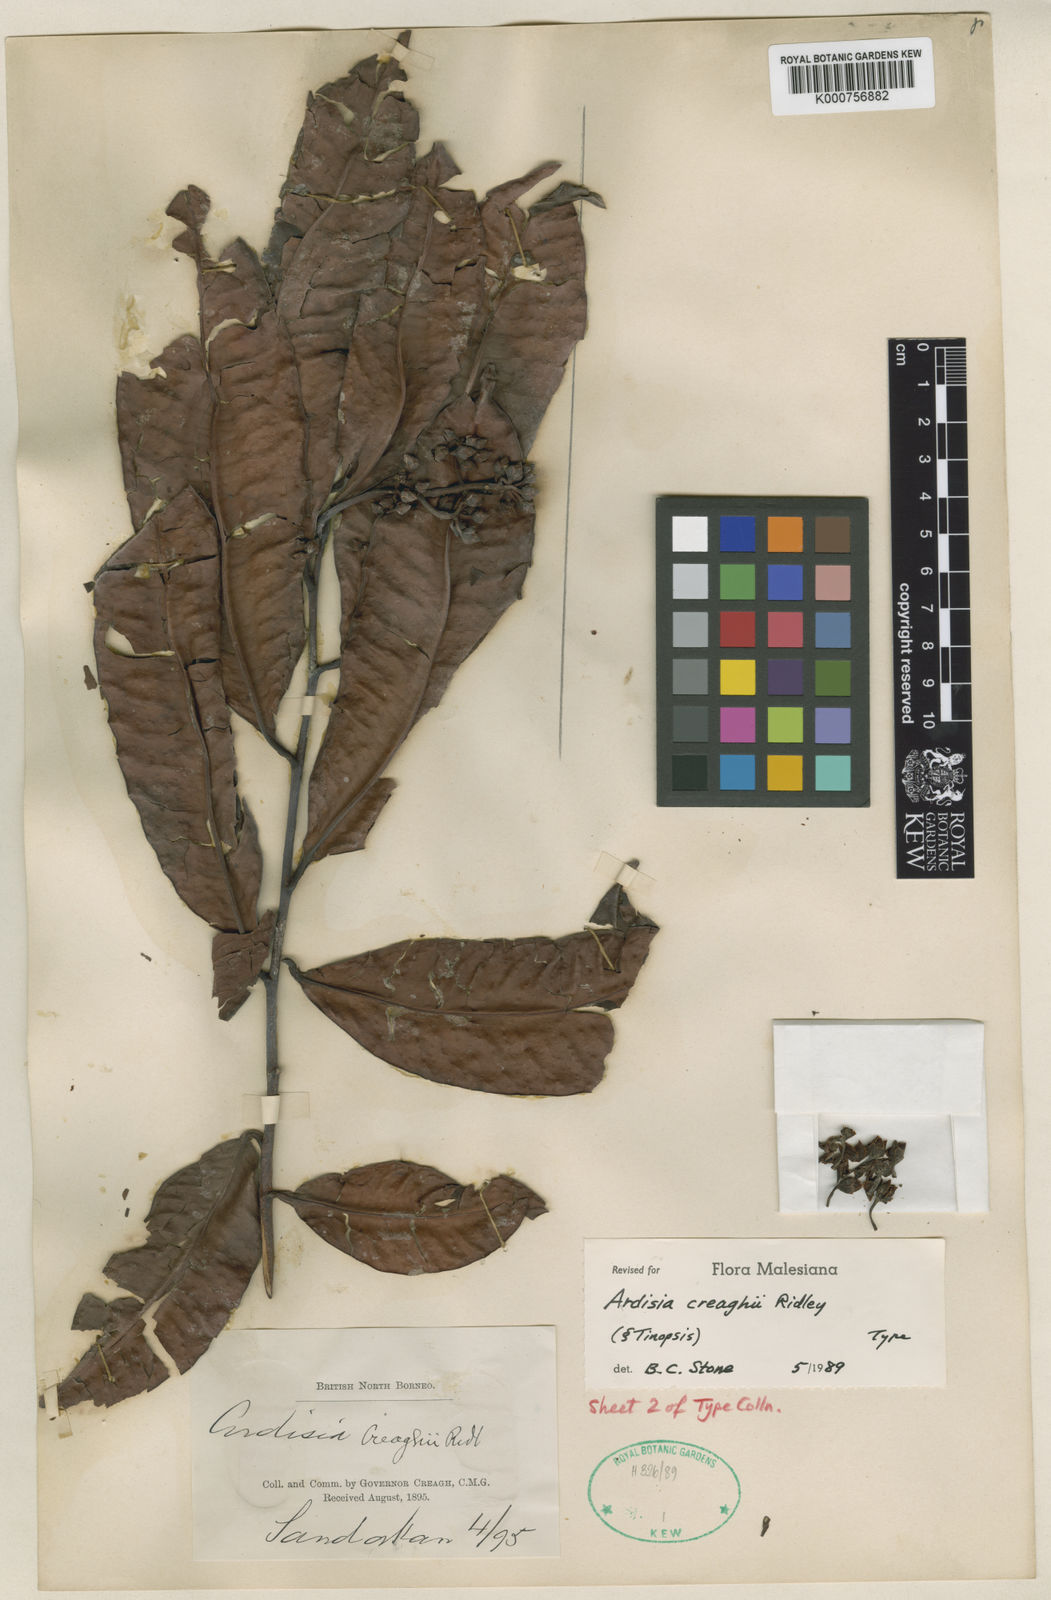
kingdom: Plantae
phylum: Tracheophyta
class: Magnoliopsida
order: Ericales
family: Primulaceae
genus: Ardisia
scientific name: Ardisia
